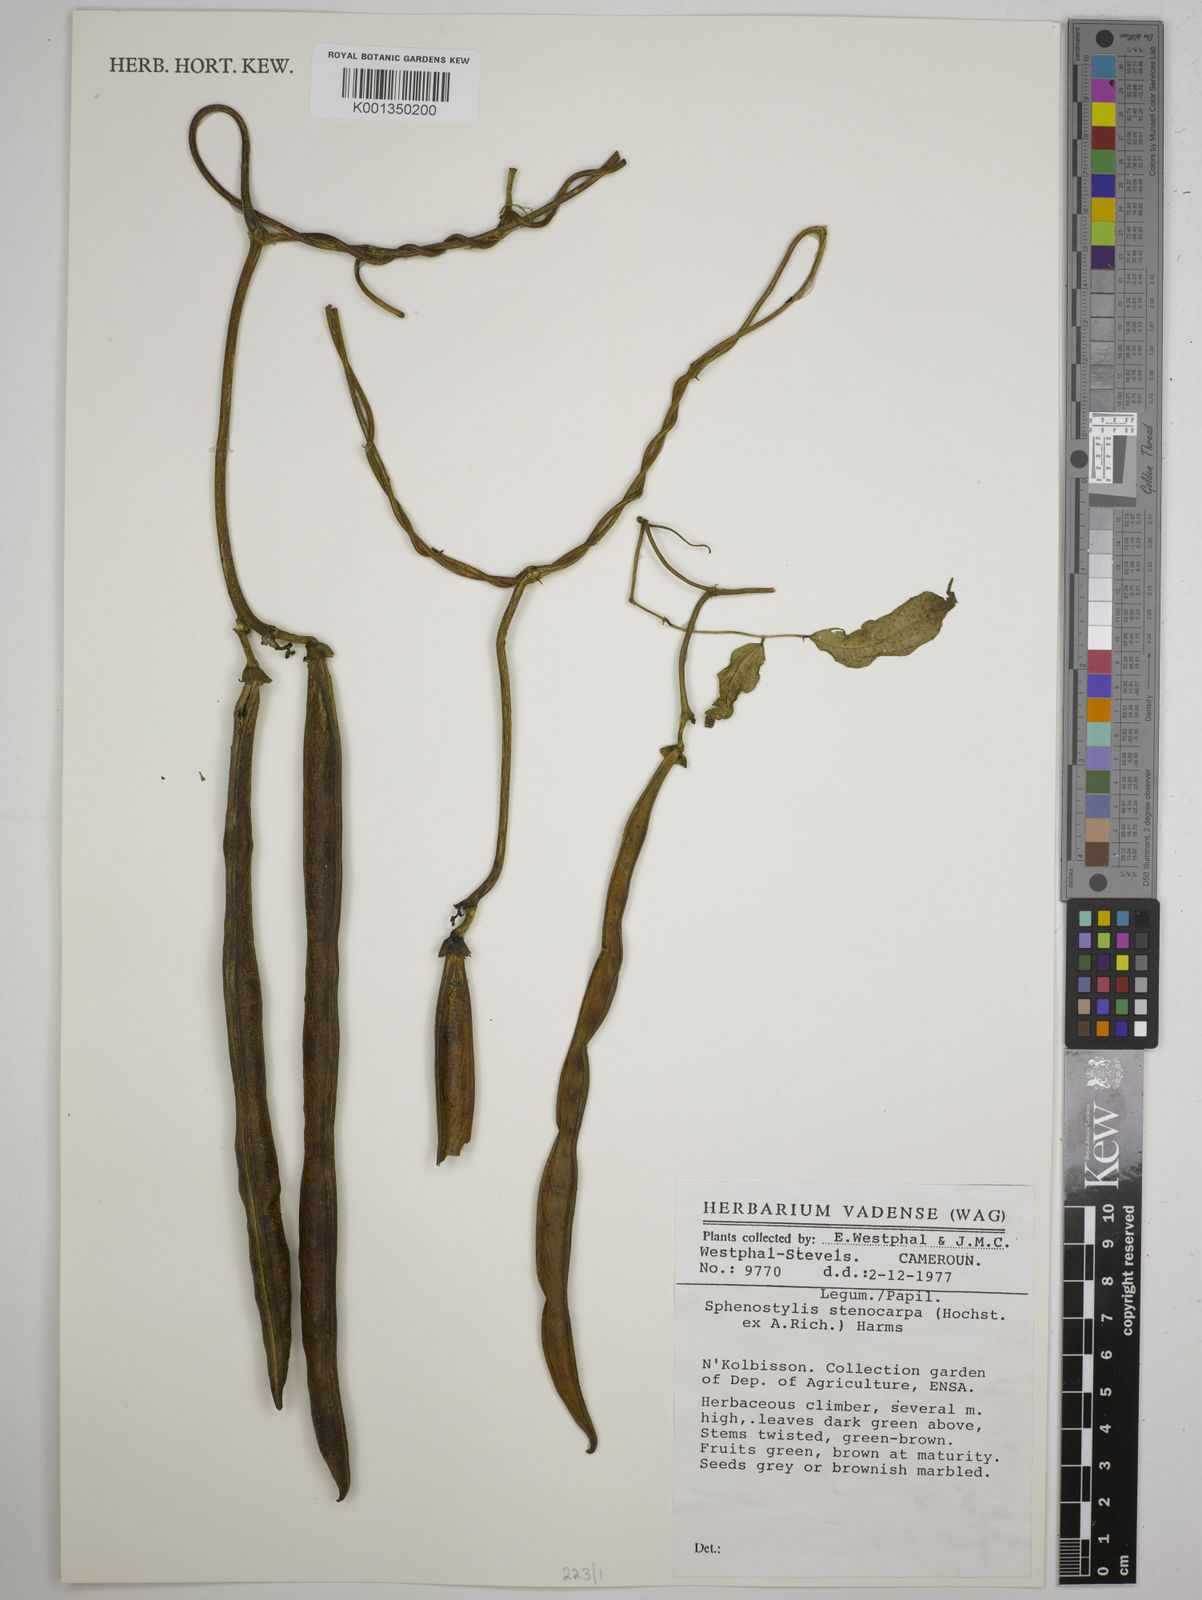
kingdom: Plantae
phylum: Tracheophyta
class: Magnoliopsida
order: Fabales
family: Fabaceae
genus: Sphenostylis
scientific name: Sphenostylis stenocarpa
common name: Yam-pea
